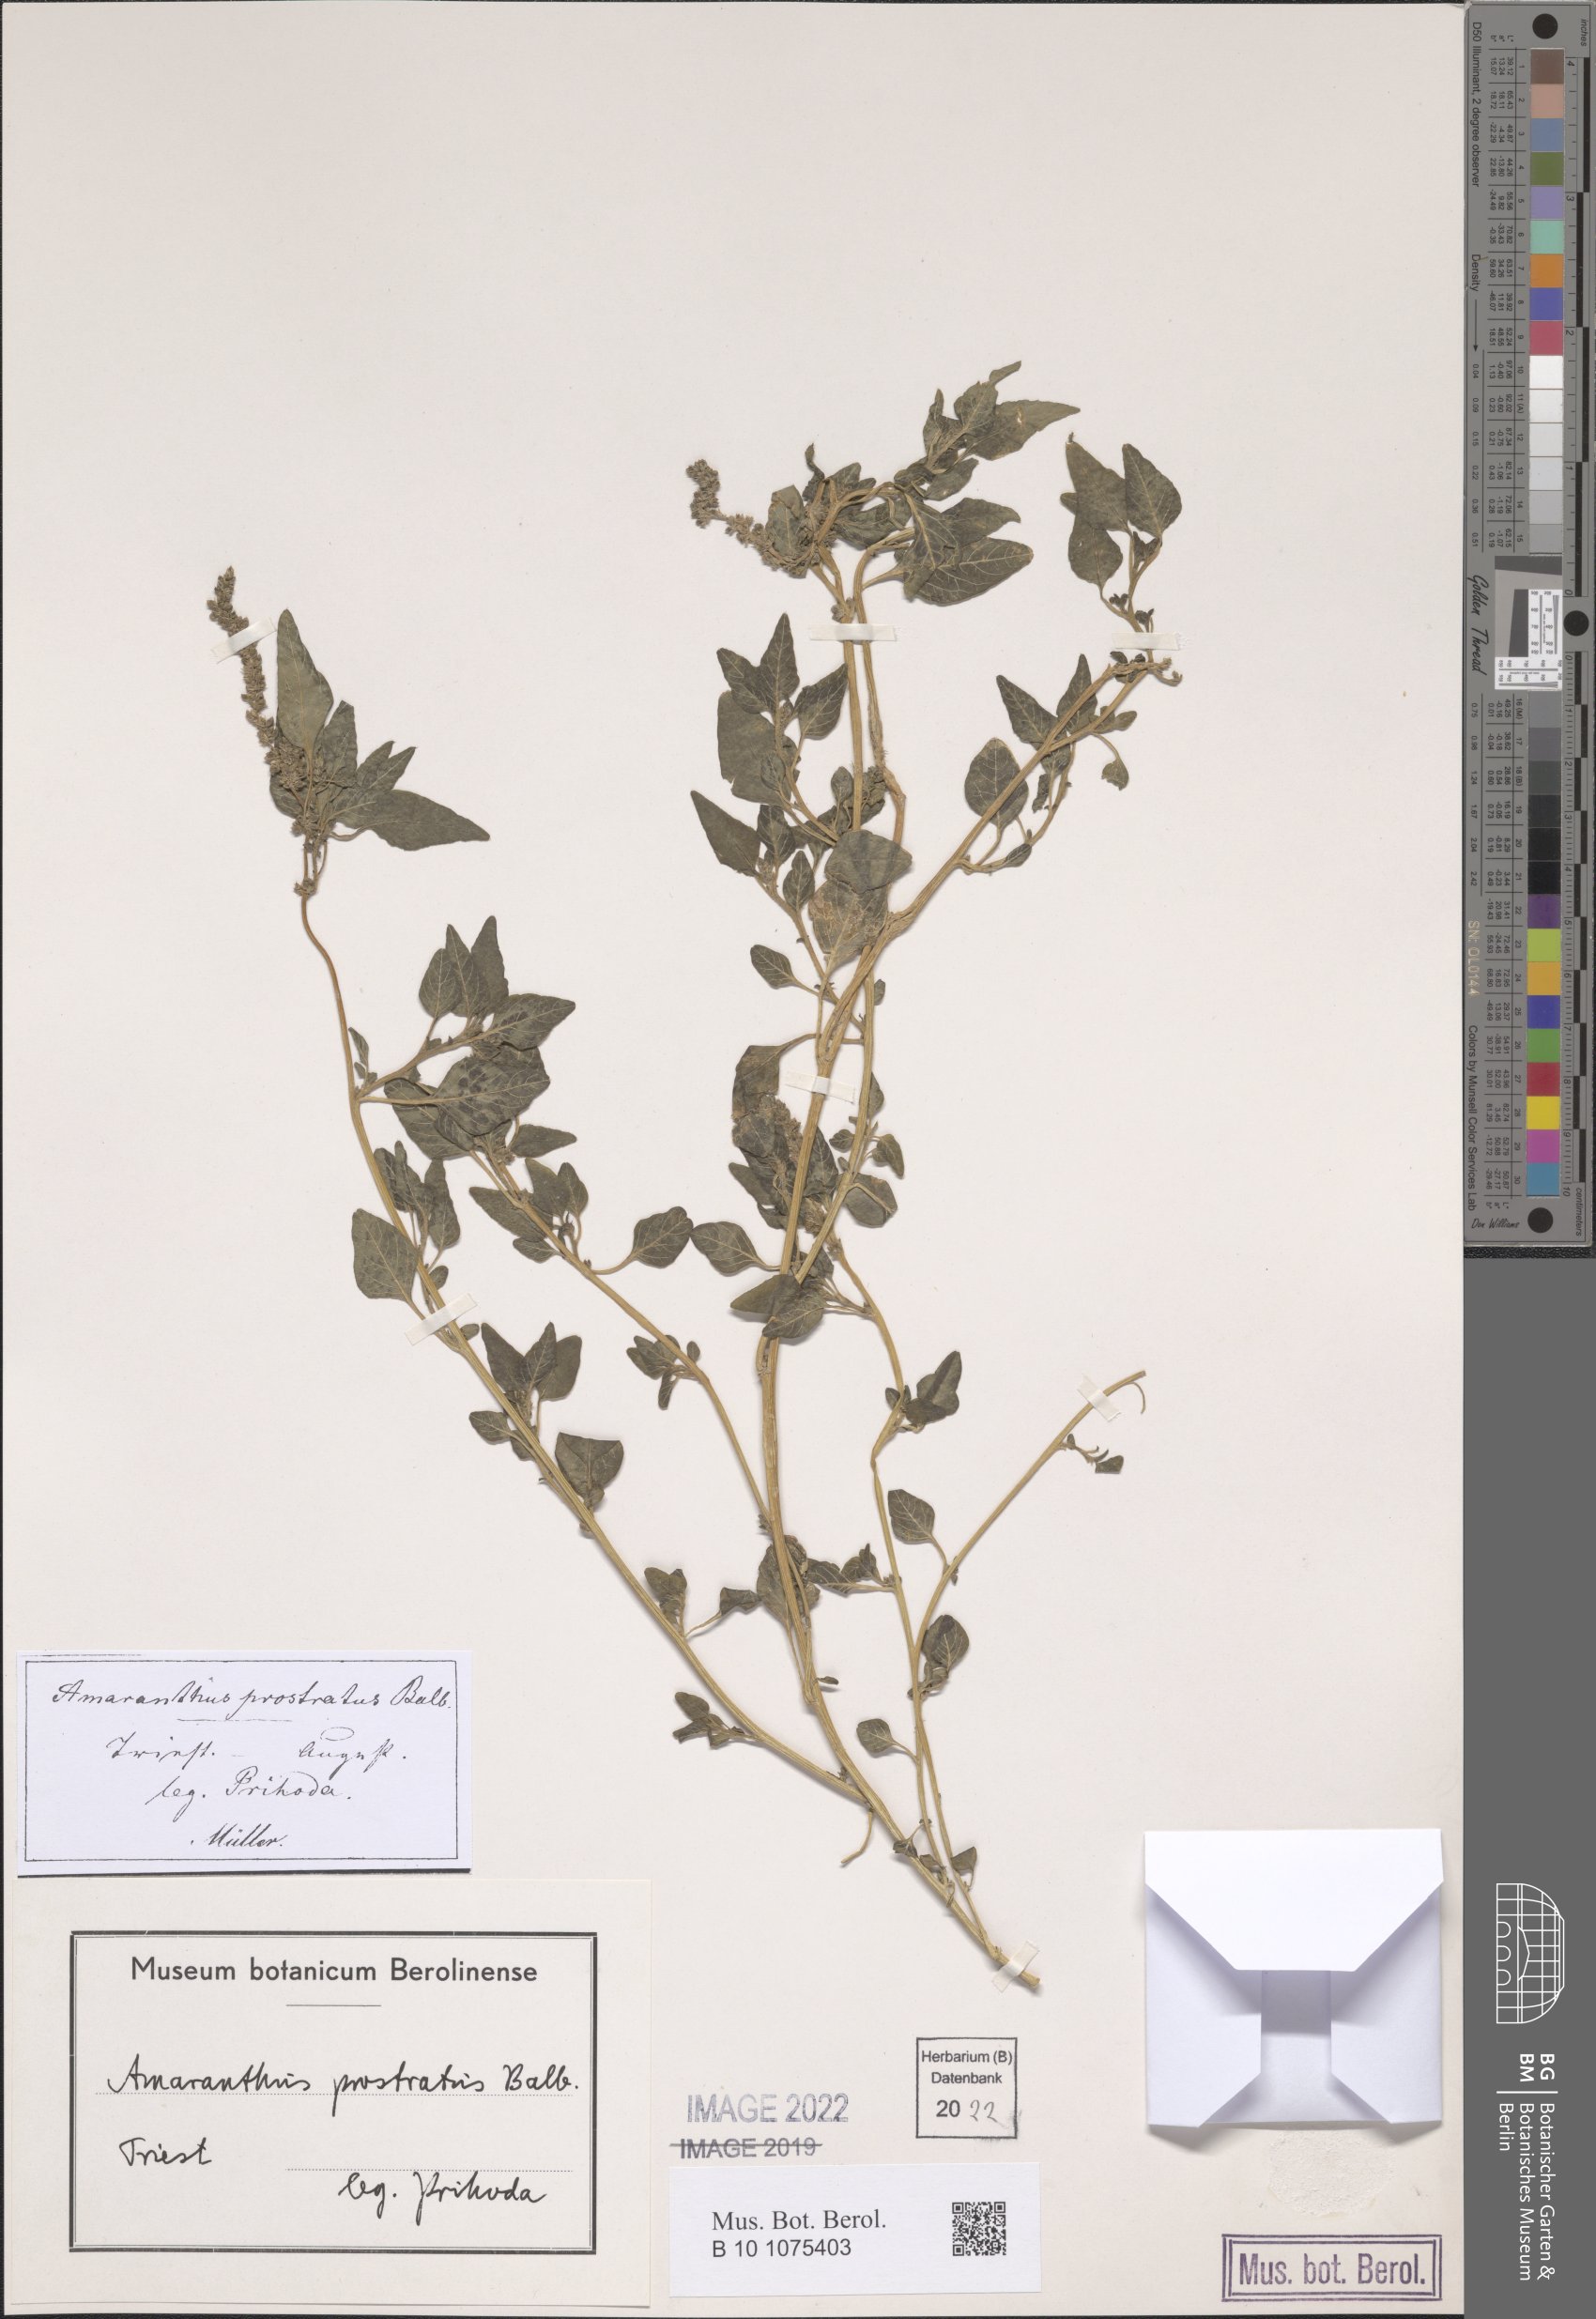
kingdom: Plantae
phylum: Tracheophyta
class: Magnoliopsida
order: Caryophyllales
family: Amaranthaceae
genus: Amaranthus
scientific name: Amaranthus deflexus
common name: Perennial pigweed
